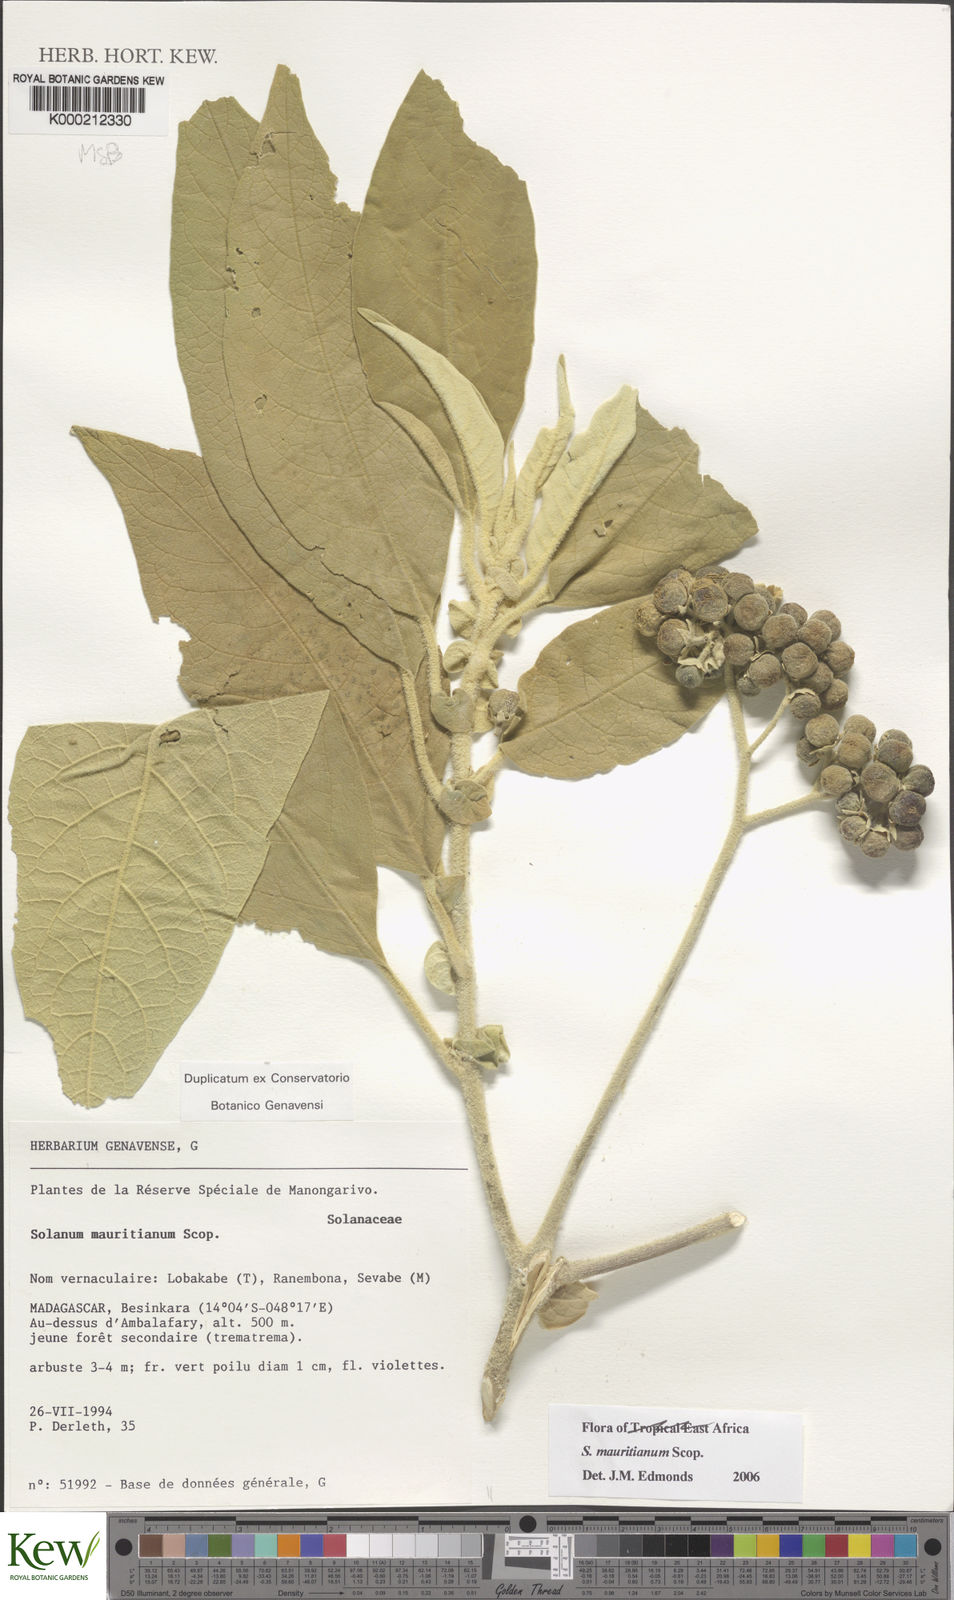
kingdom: Plantae
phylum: Tracheophyta
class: Magnoliopsida
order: Solanales
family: Solanaceae
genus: Solanum
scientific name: Solanum mauritianum
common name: Earleaf nightshade
